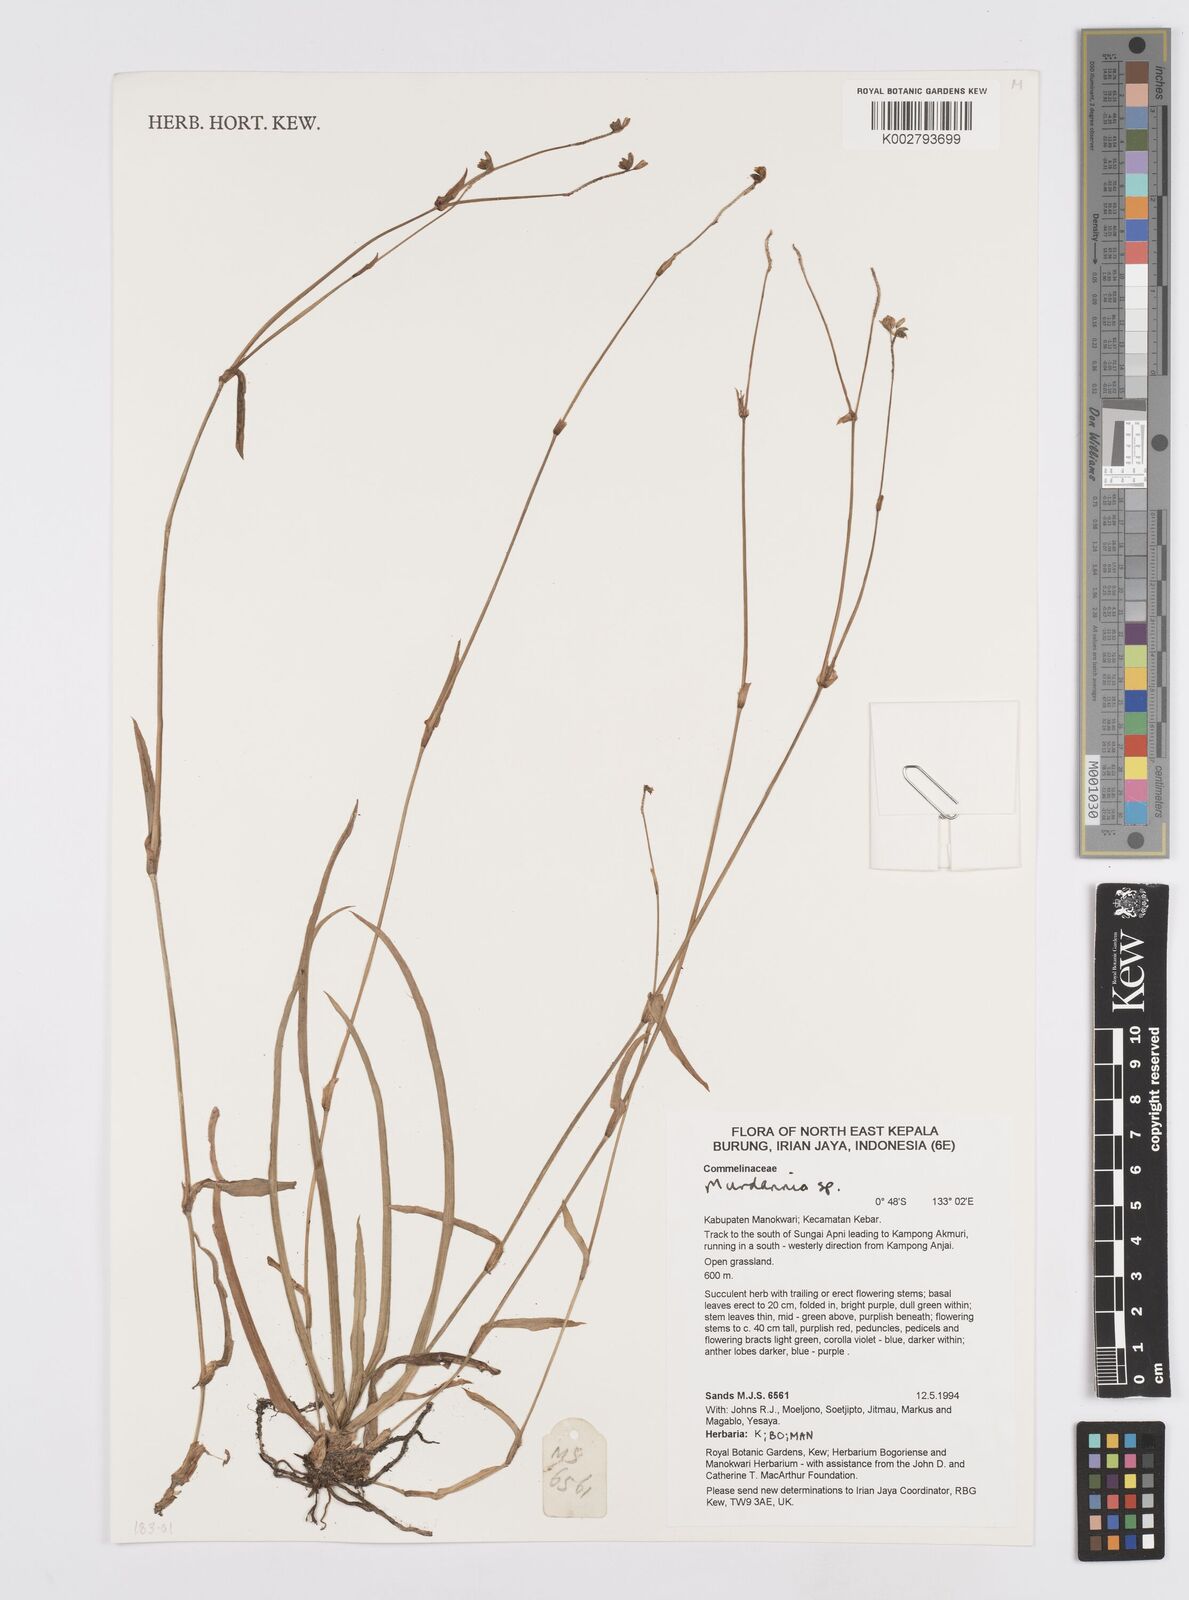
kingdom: Plantae
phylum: Tracheophyta
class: Liliopsida
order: Commelinales
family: Commelinaceae
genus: Murdannia
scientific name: Murdannia
